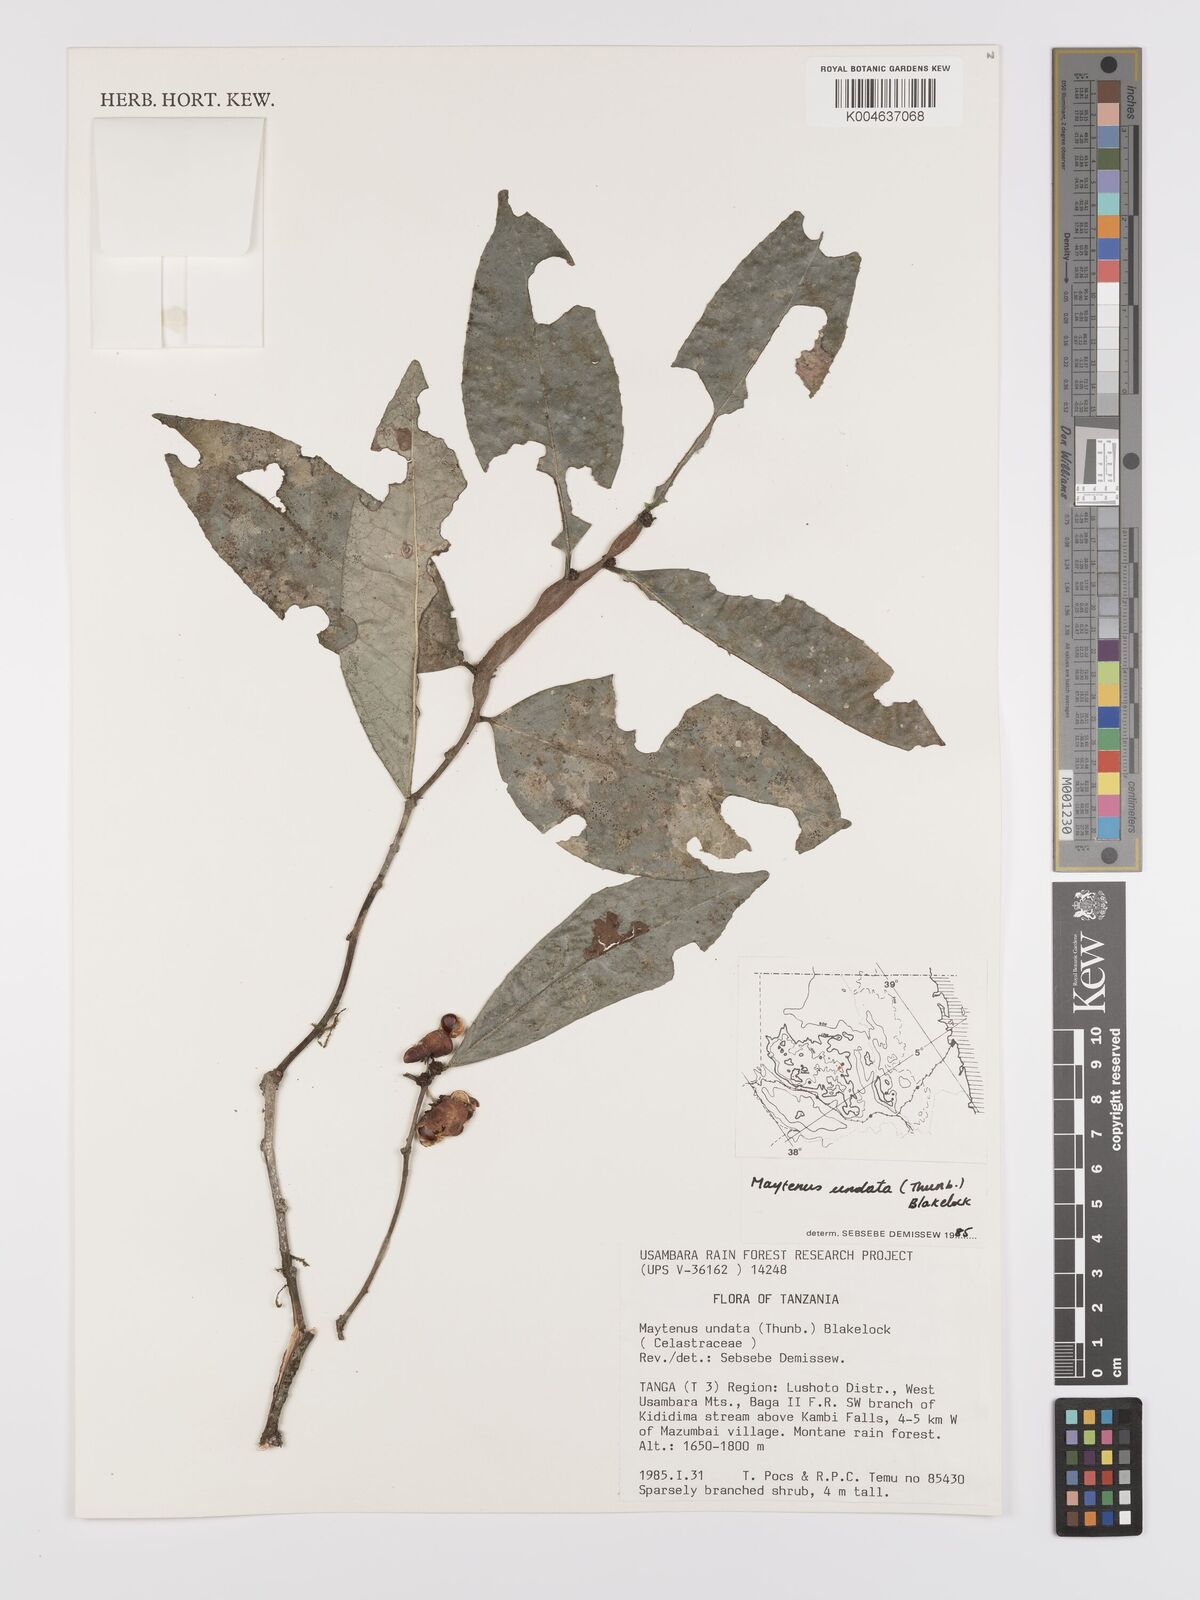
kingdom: Plantae
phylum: Tracheophyta
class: Magnoliopsida
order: Celastrales
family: Celastraceae
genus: Gymnosporia
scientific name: Gymnosporia undata
